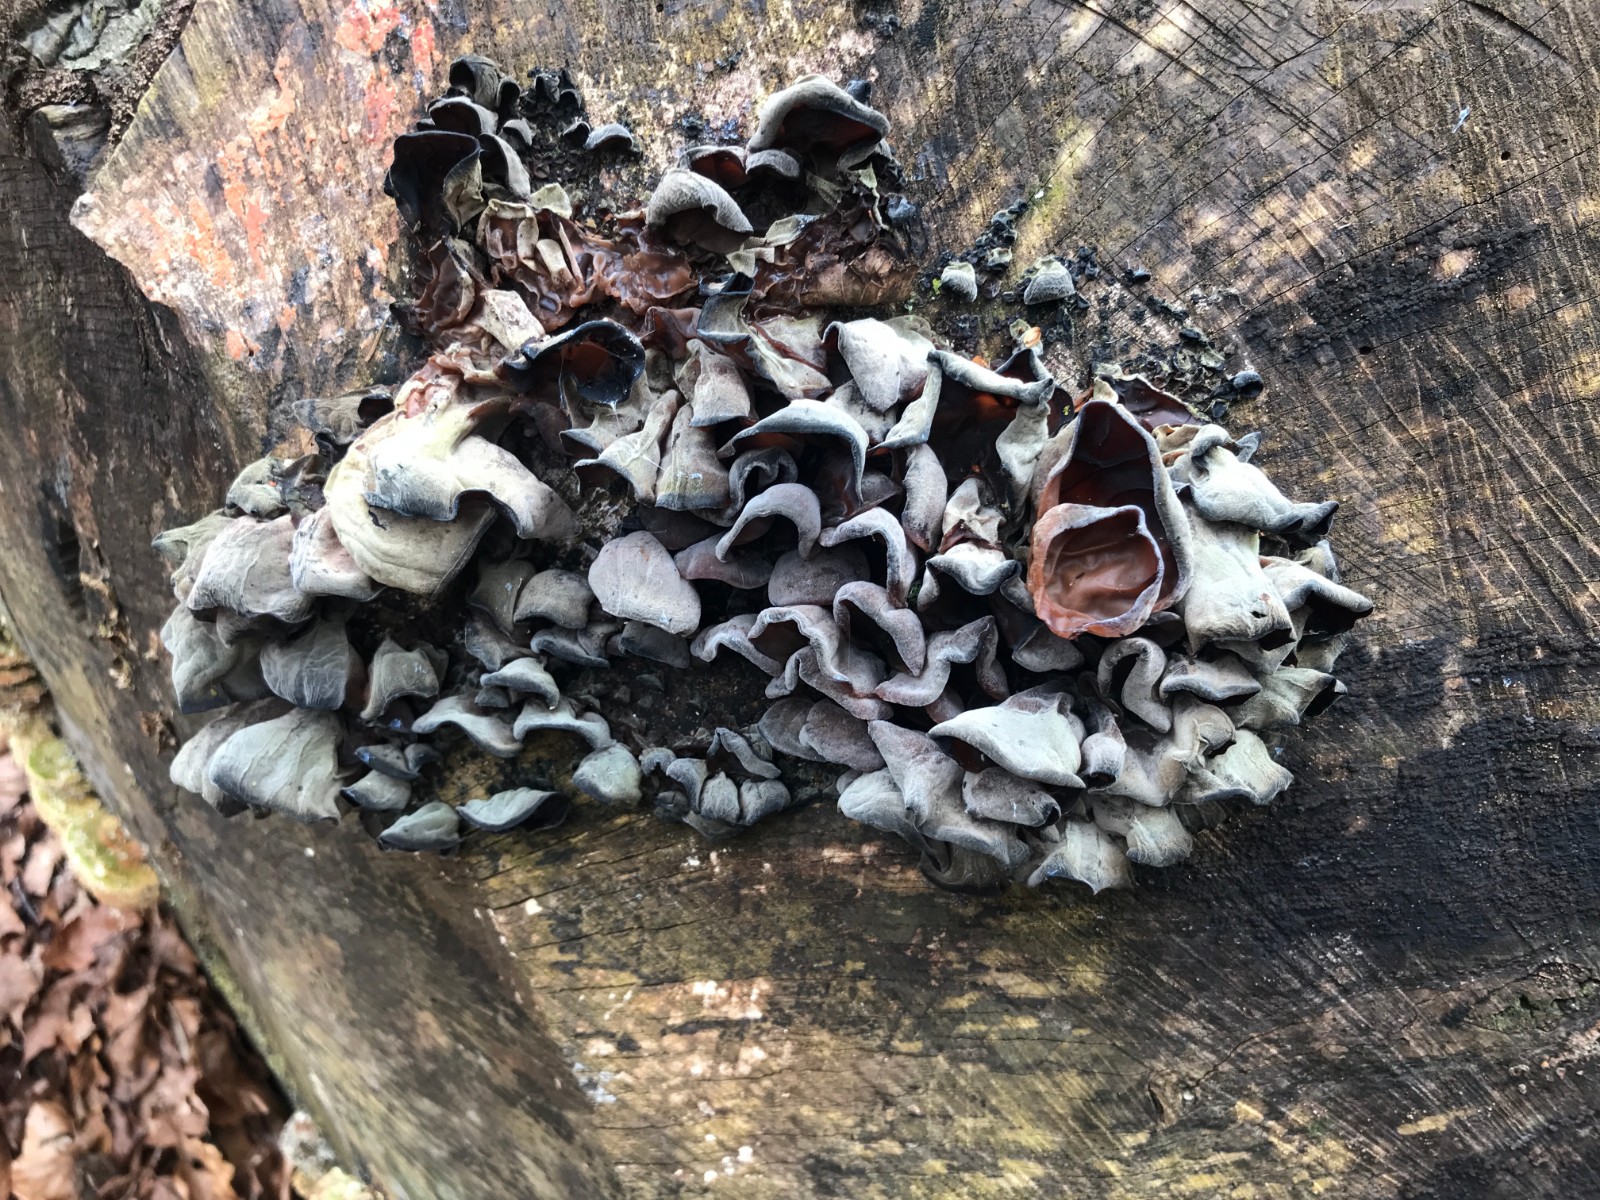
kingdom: Fungi
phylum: Basidiomycota
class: Agaricomycetes
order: Auriculariales
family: Auriculariaceae
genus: Auricularia
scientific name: Auricularia auricula-judae
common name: almindelig judasøre
